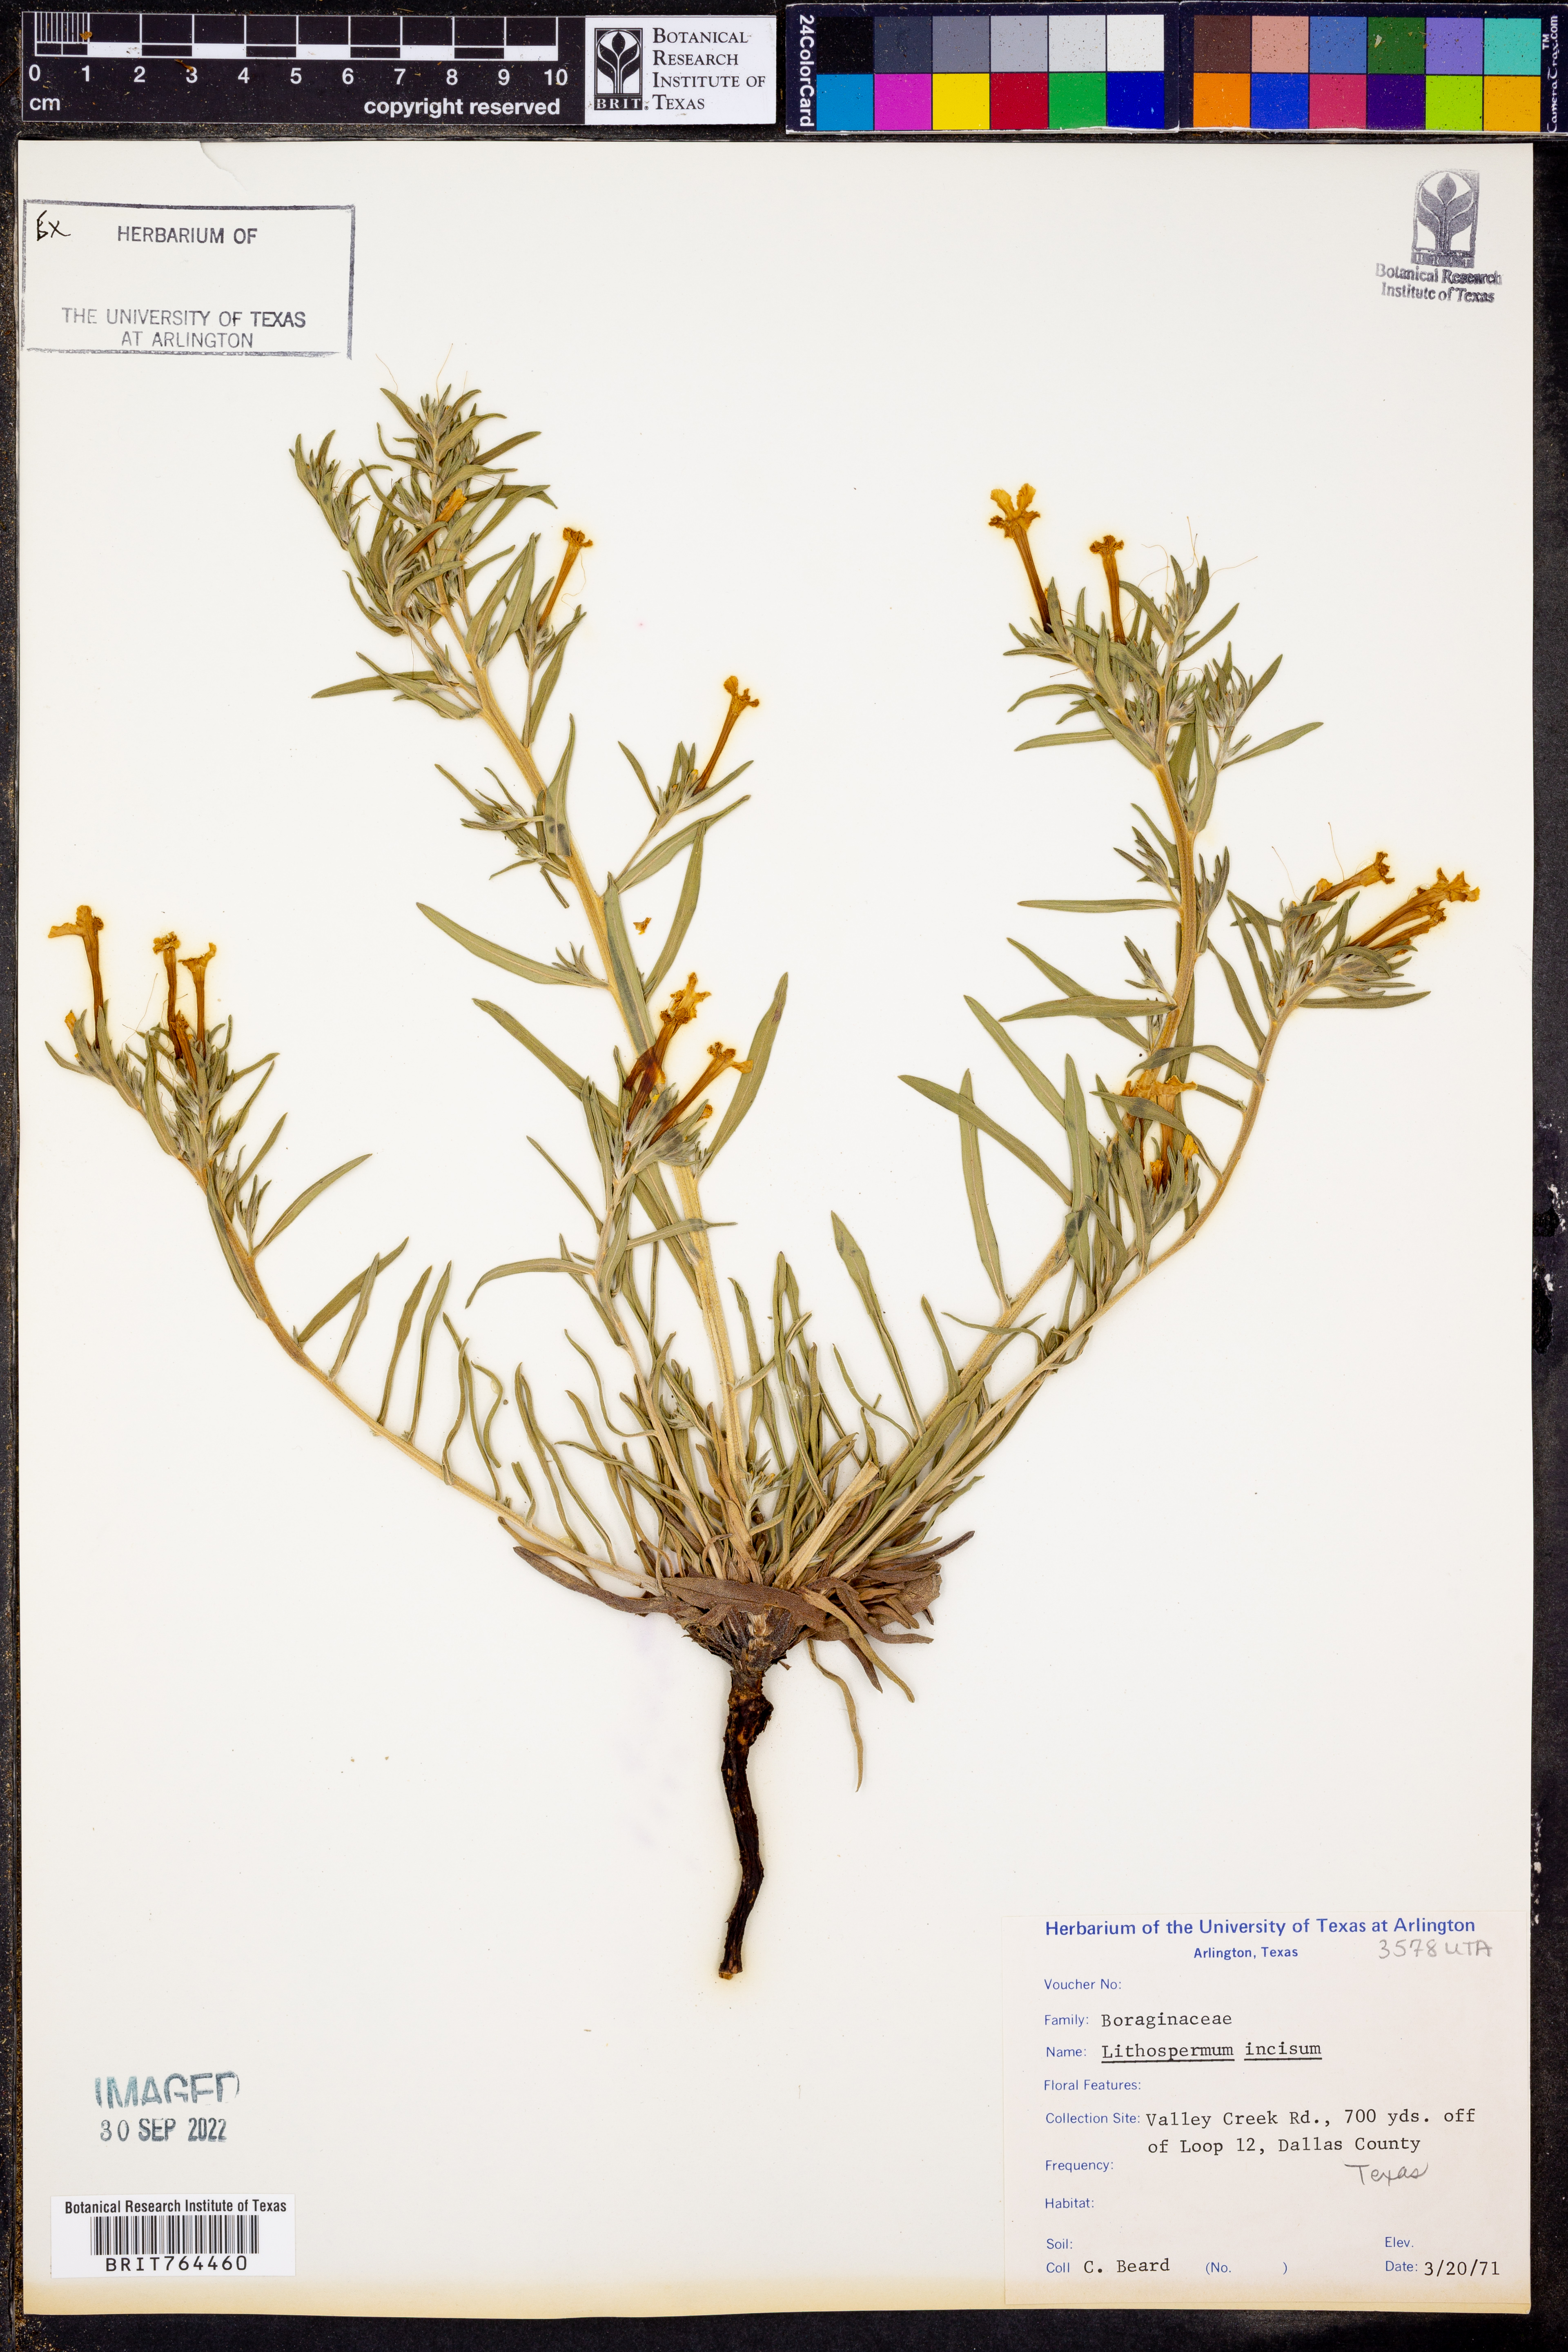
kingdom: Plantae
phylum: Tracheophyta
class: Magnoliopsida
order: Boraginales
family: Boraginaceae
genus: Lithospermum
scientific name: Lithospermum incisum
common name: Fringed gromwell
